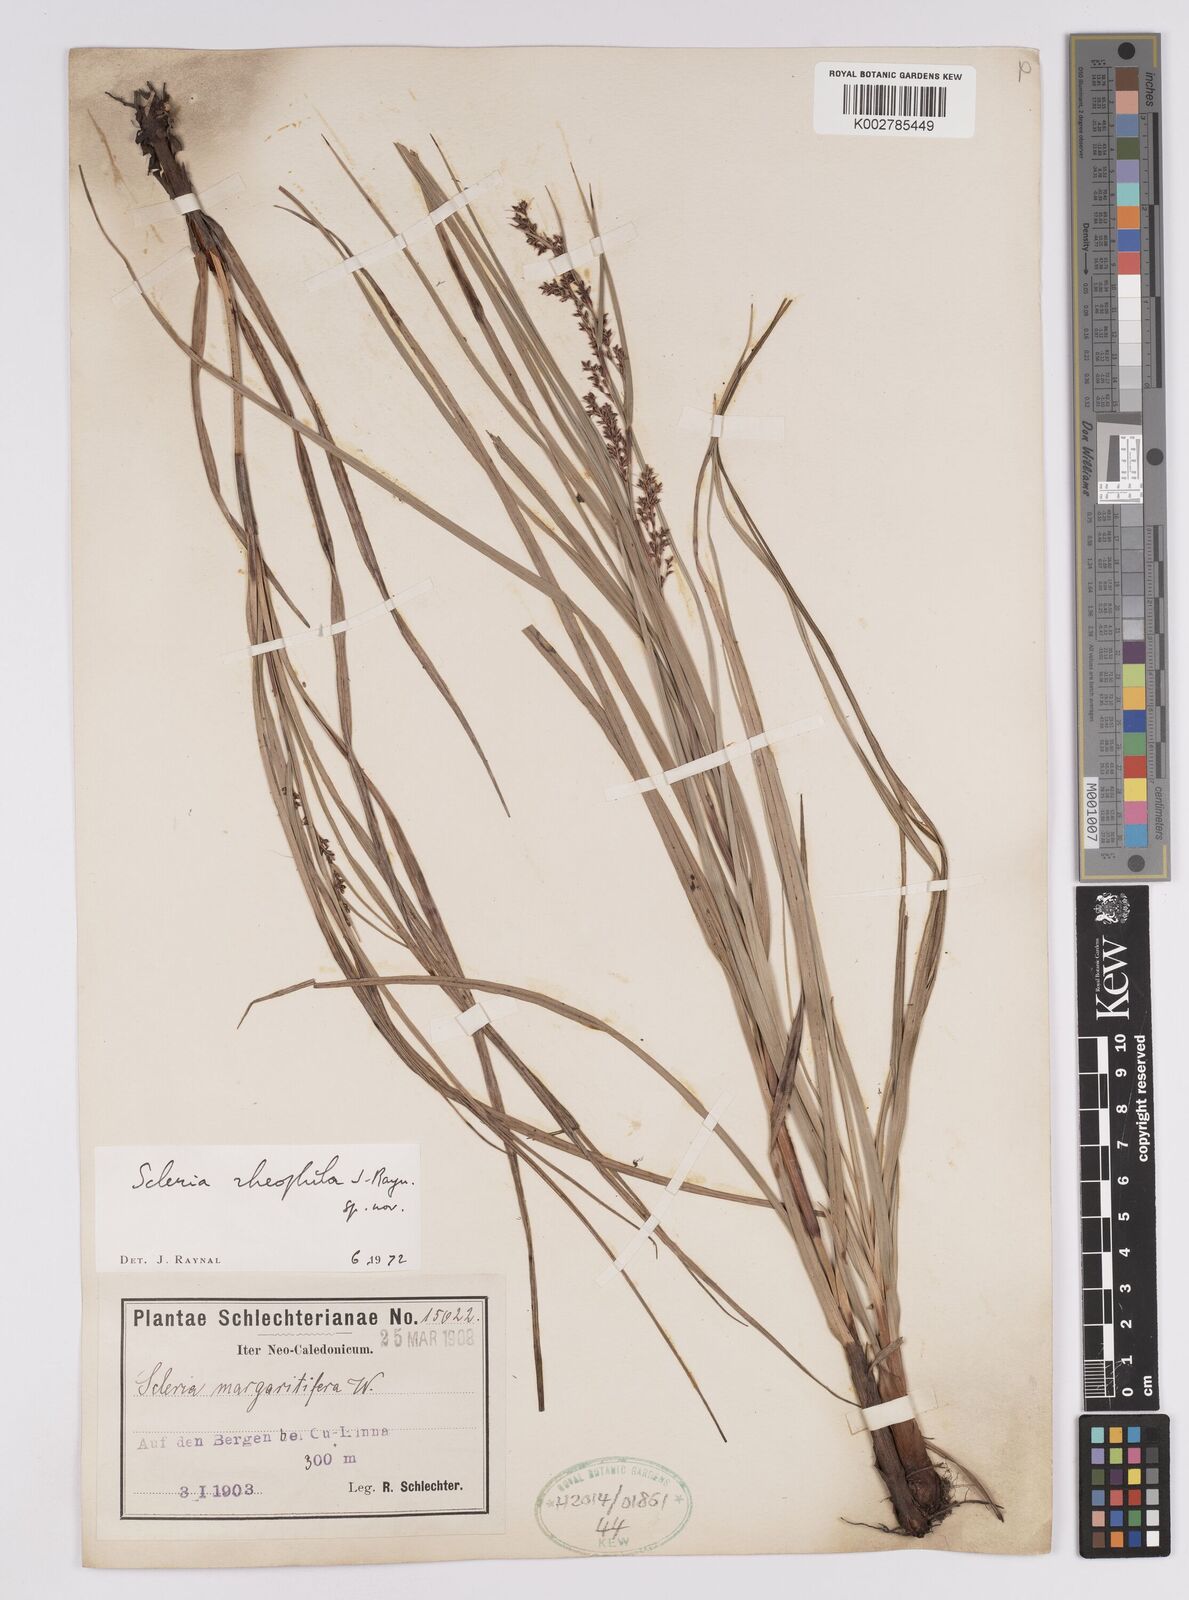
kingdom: Plantae
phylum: Tracheophyta
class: Liliopsida
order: Poales
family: Cyperaceae
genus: Scleria
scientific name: Scleria
